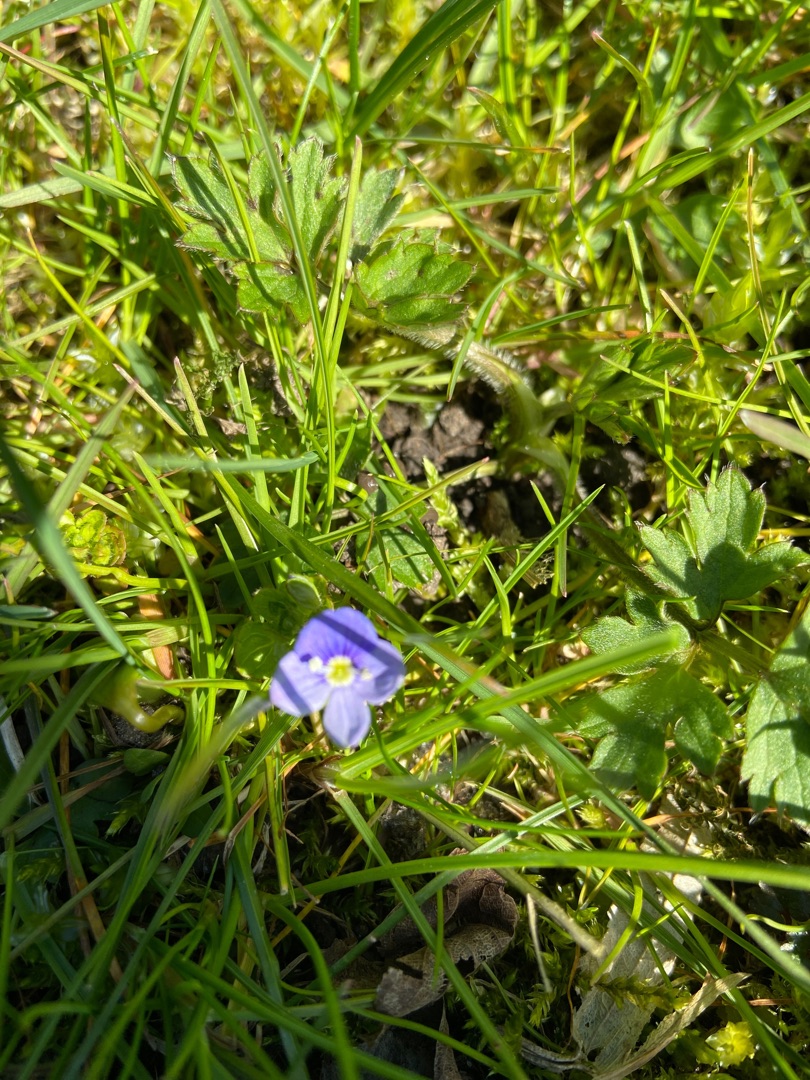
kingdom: Plantae
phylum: Tracheophyta
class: Magnoliopsida
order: Lamiales
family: Plantaginaceae
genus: Veronica
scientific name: Veronica filiformis
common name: Tråd-ærenpris
